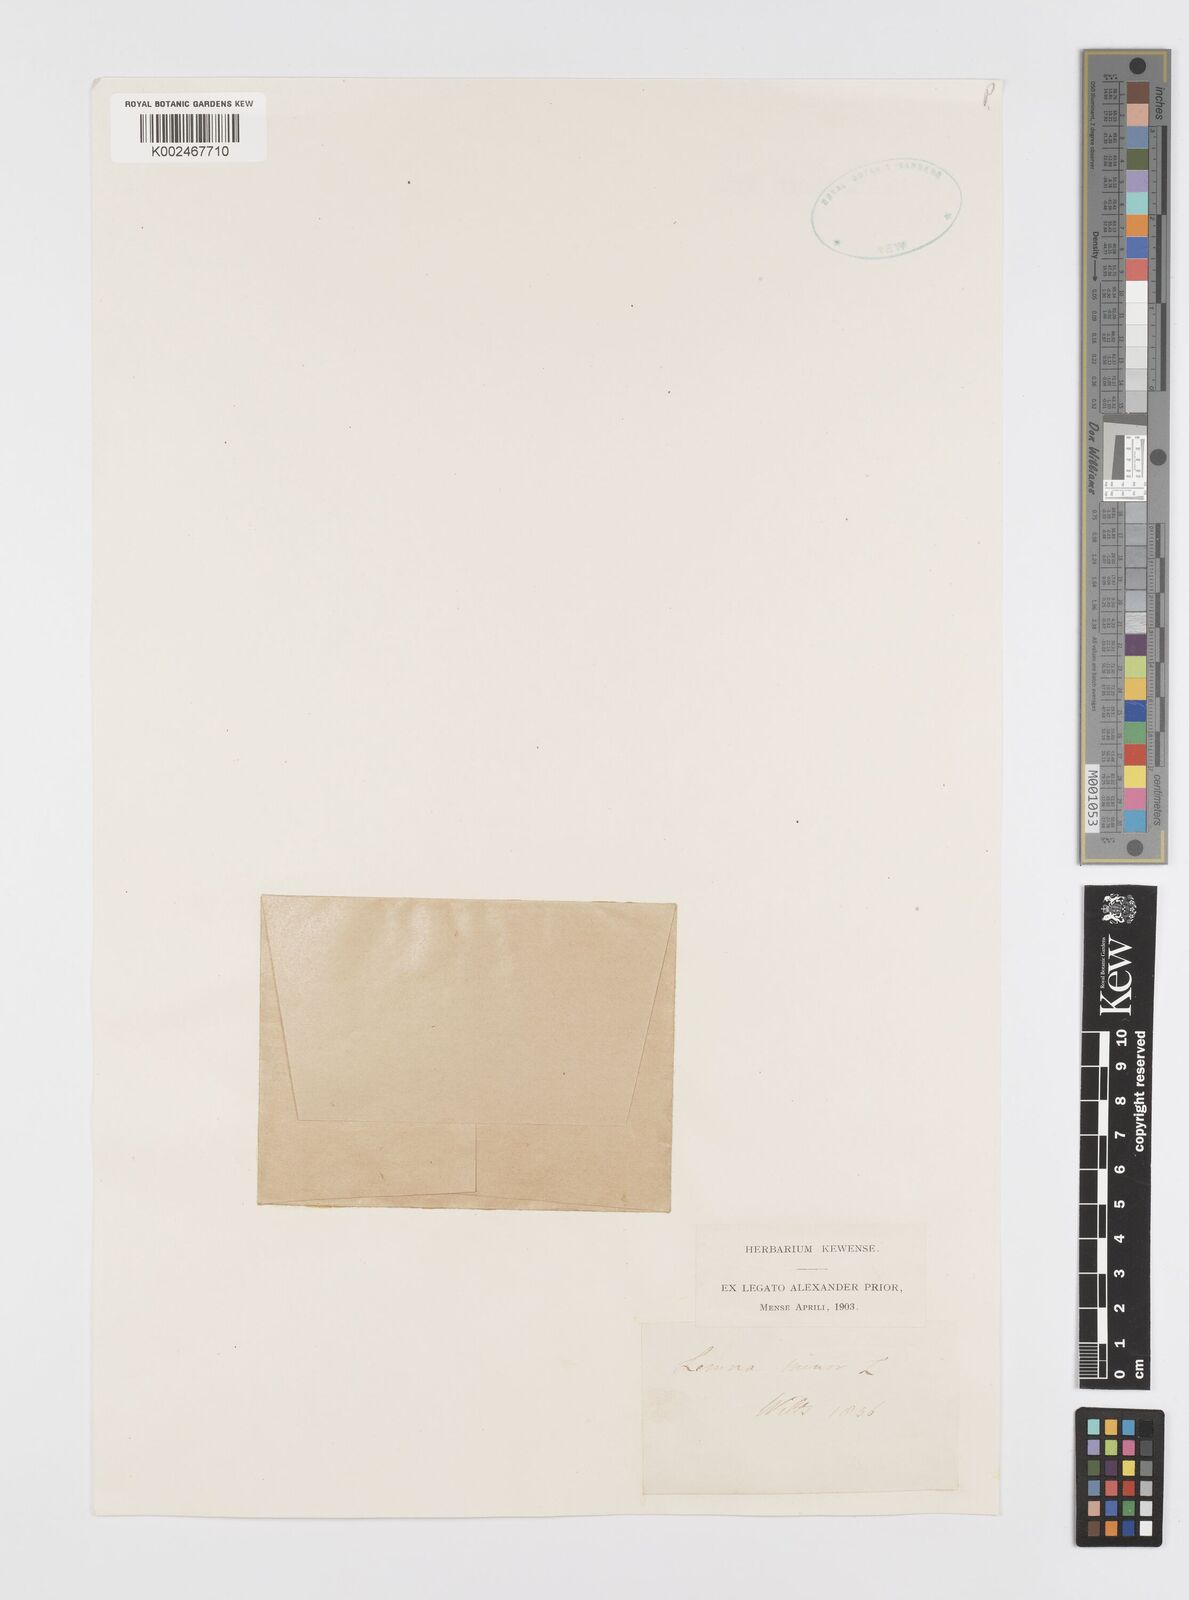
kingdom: Plantae
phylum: Tracheophyta
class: Liliopsida
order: Alismatales
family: Araceae
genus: Lemna
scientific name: Lemna minor
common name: Common duckweed
